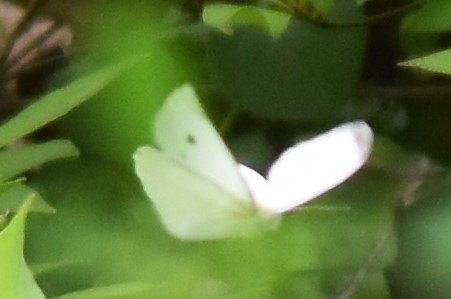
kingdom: Animalia
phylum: Arthropoda
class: Insecta
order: Lepidoptera
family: Pieridae
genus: Pieris
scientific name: Pieris rapae
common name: Cabbage White
